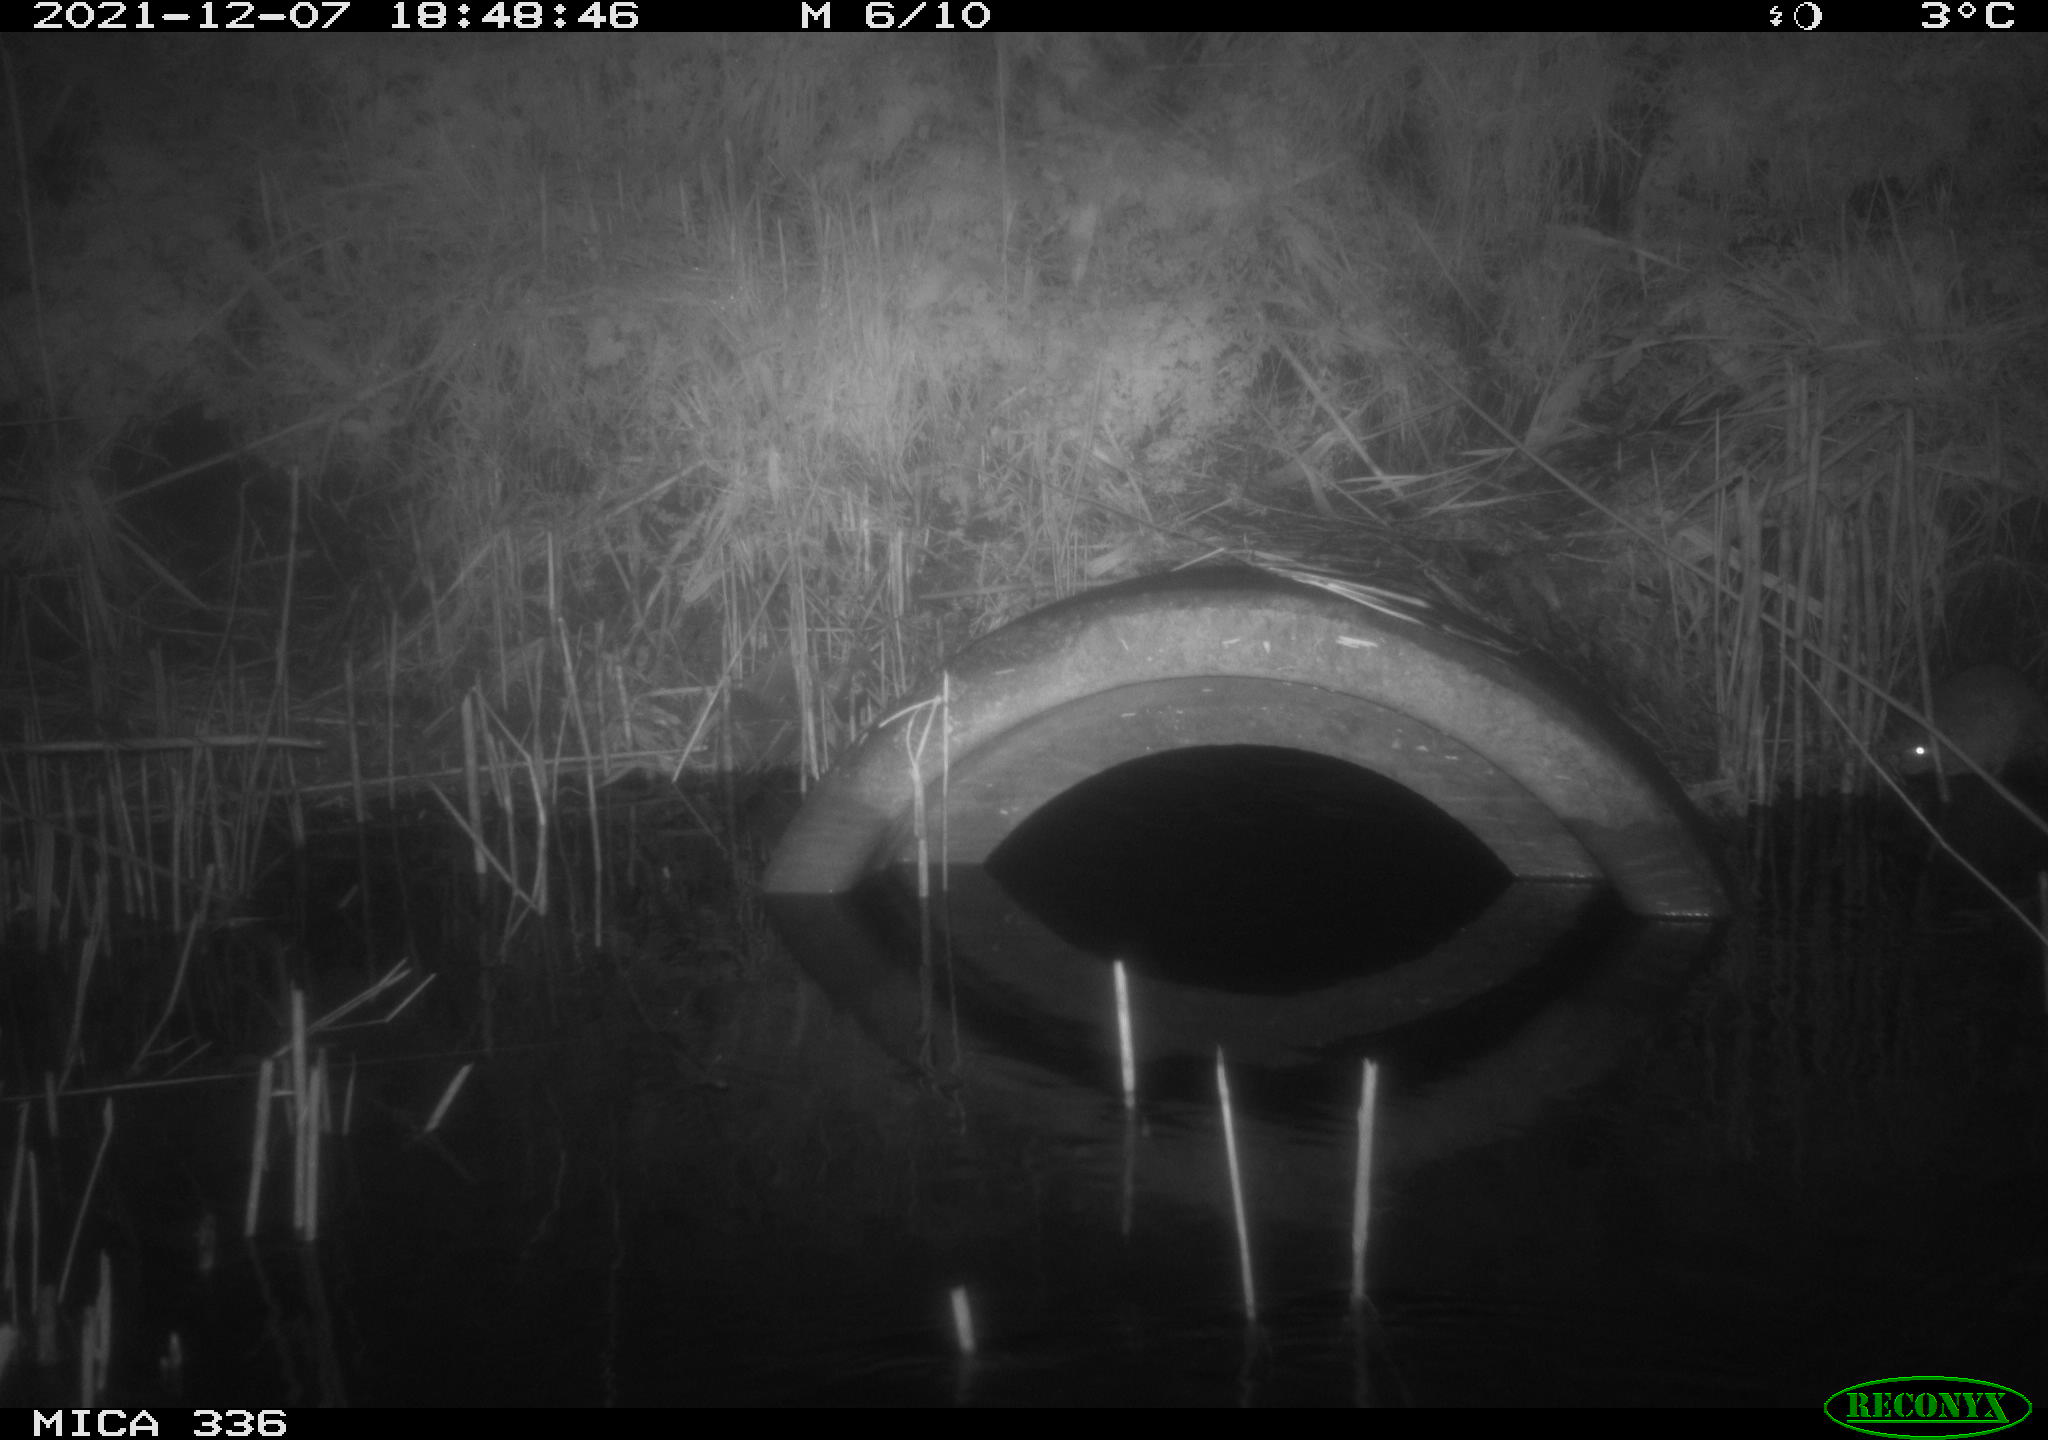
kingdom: Animalia
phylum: Chordata
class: Mammalia
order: Rodentia
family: Muridae
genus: Rattus
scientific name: Rattus norvegicus
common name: Brown rat
